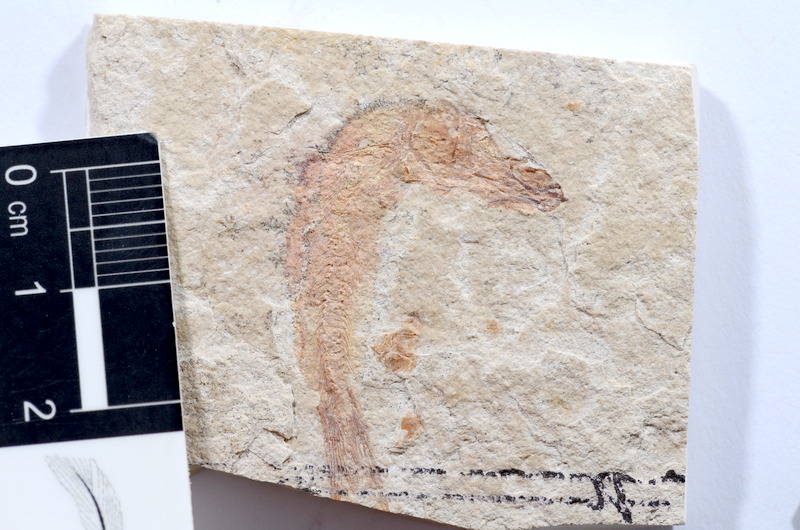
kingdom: Animalia
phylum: Chordata
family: Ascalaboidae
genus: Tharsis
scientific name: Tharsis dubius
